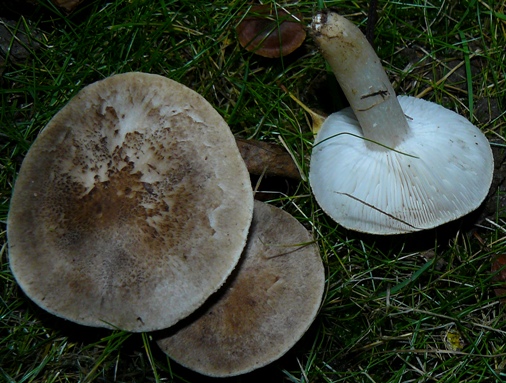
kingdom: Fungi
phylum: Basidiomycota
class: Agaricomycetes
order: Agaricales
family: Tricholomataceae
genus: Tricholoma
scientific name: Tricholoma argyraceum
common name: slør-ridderhat
